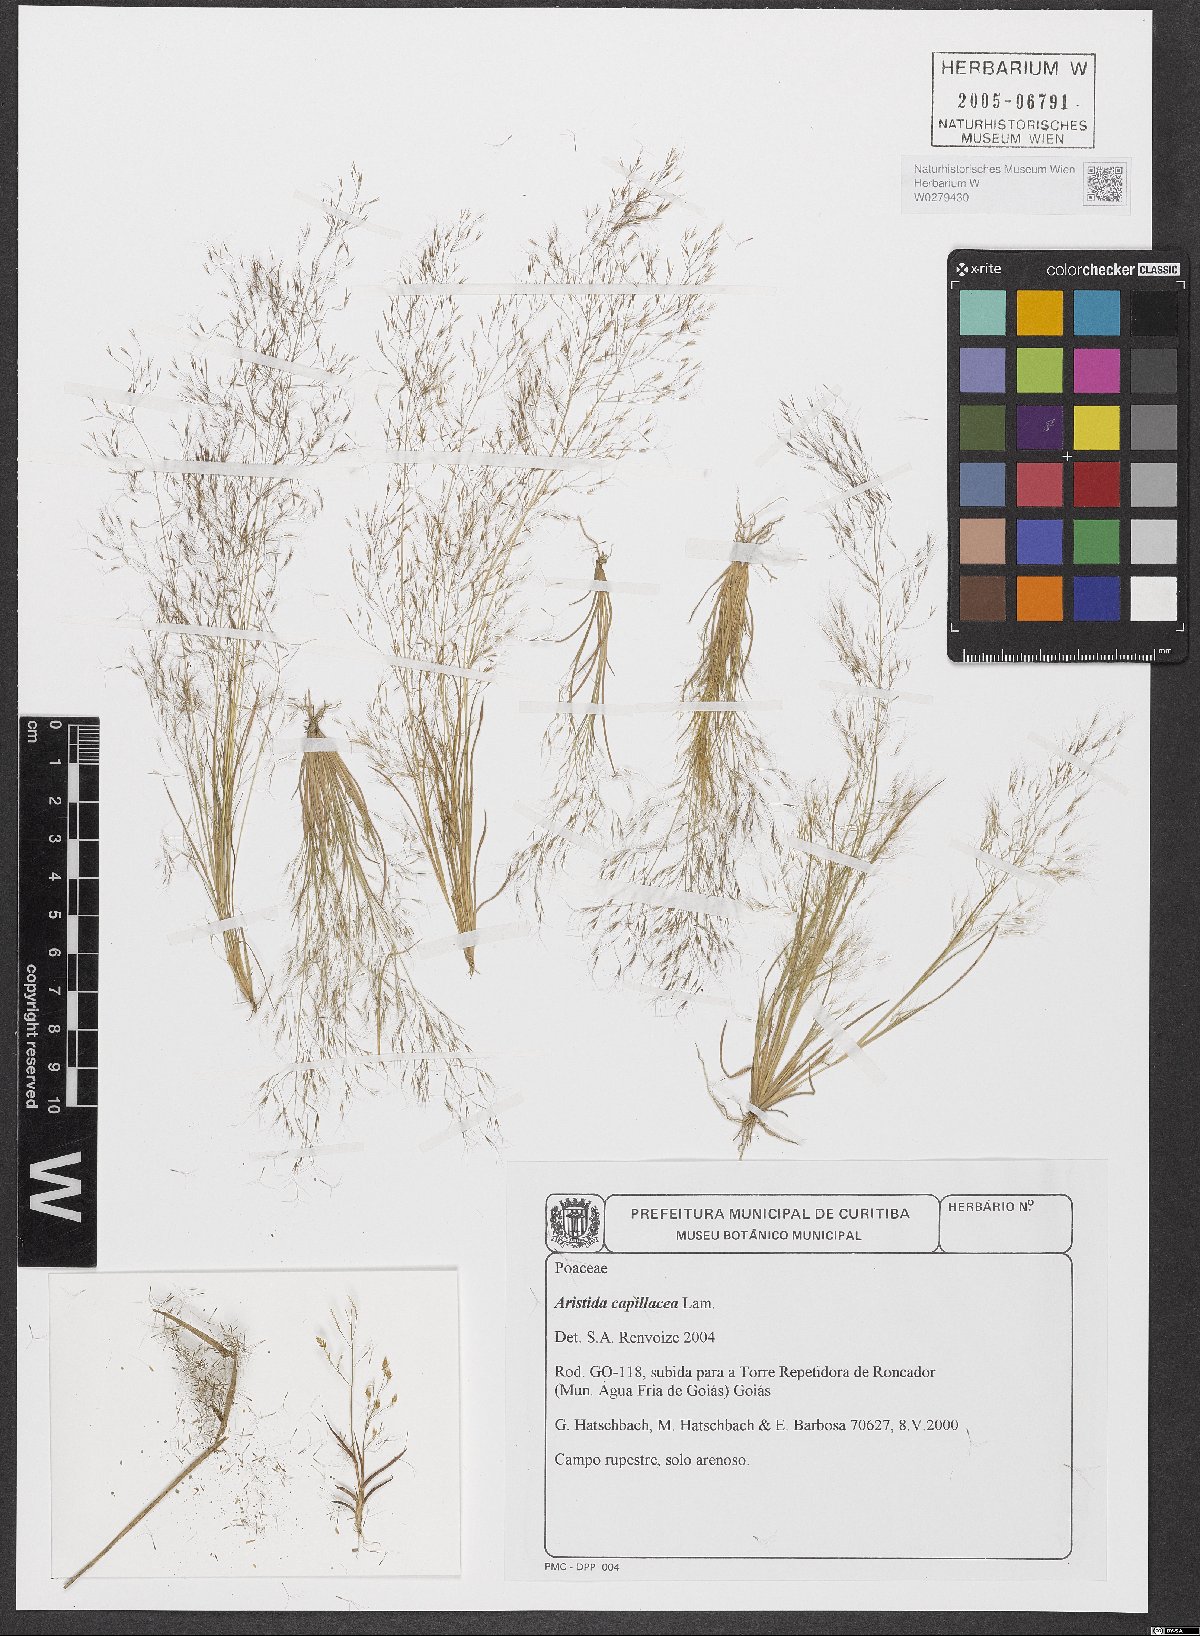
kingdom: Plantae
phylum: Tracheophyta
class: Liliopsida
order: Poales
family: Poaceae
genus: Aristida
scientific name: Aristida capillacea
